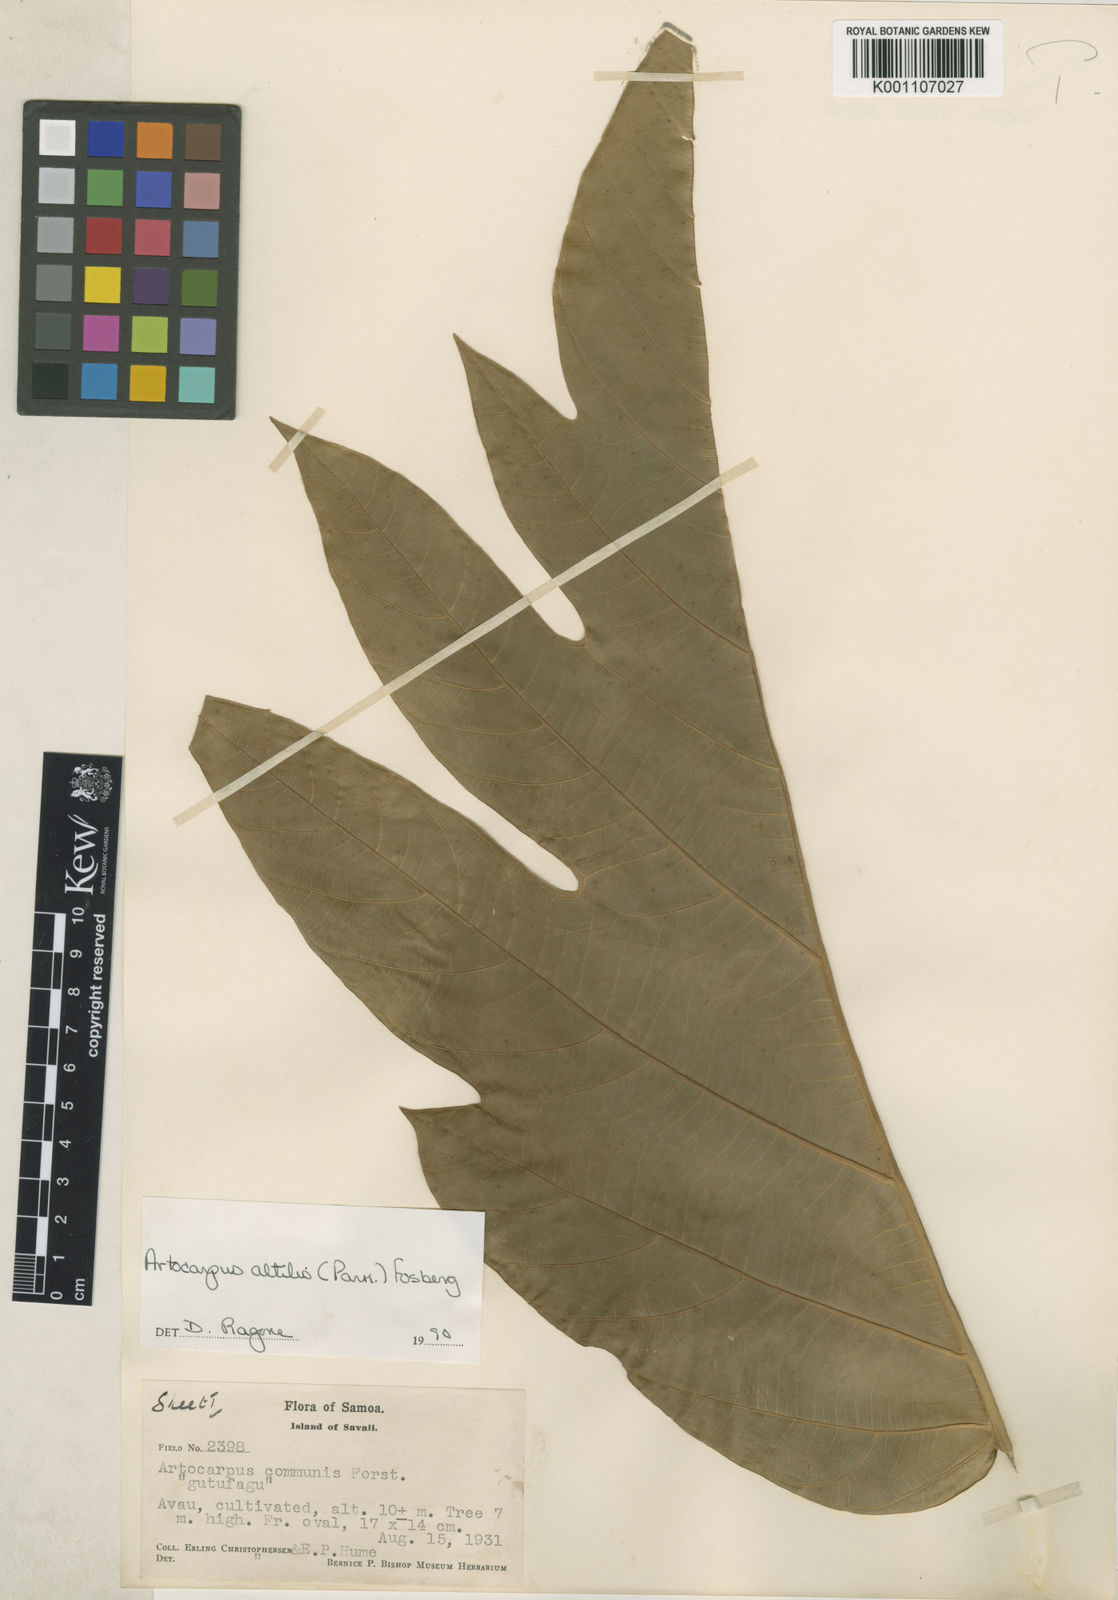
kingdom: Plantae
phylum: Tracheophyta
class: Magnoliopsida
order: Rosales
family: Moraceae
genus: Artocarpus
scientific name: Artocarpus altilis
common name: Breadfruit
